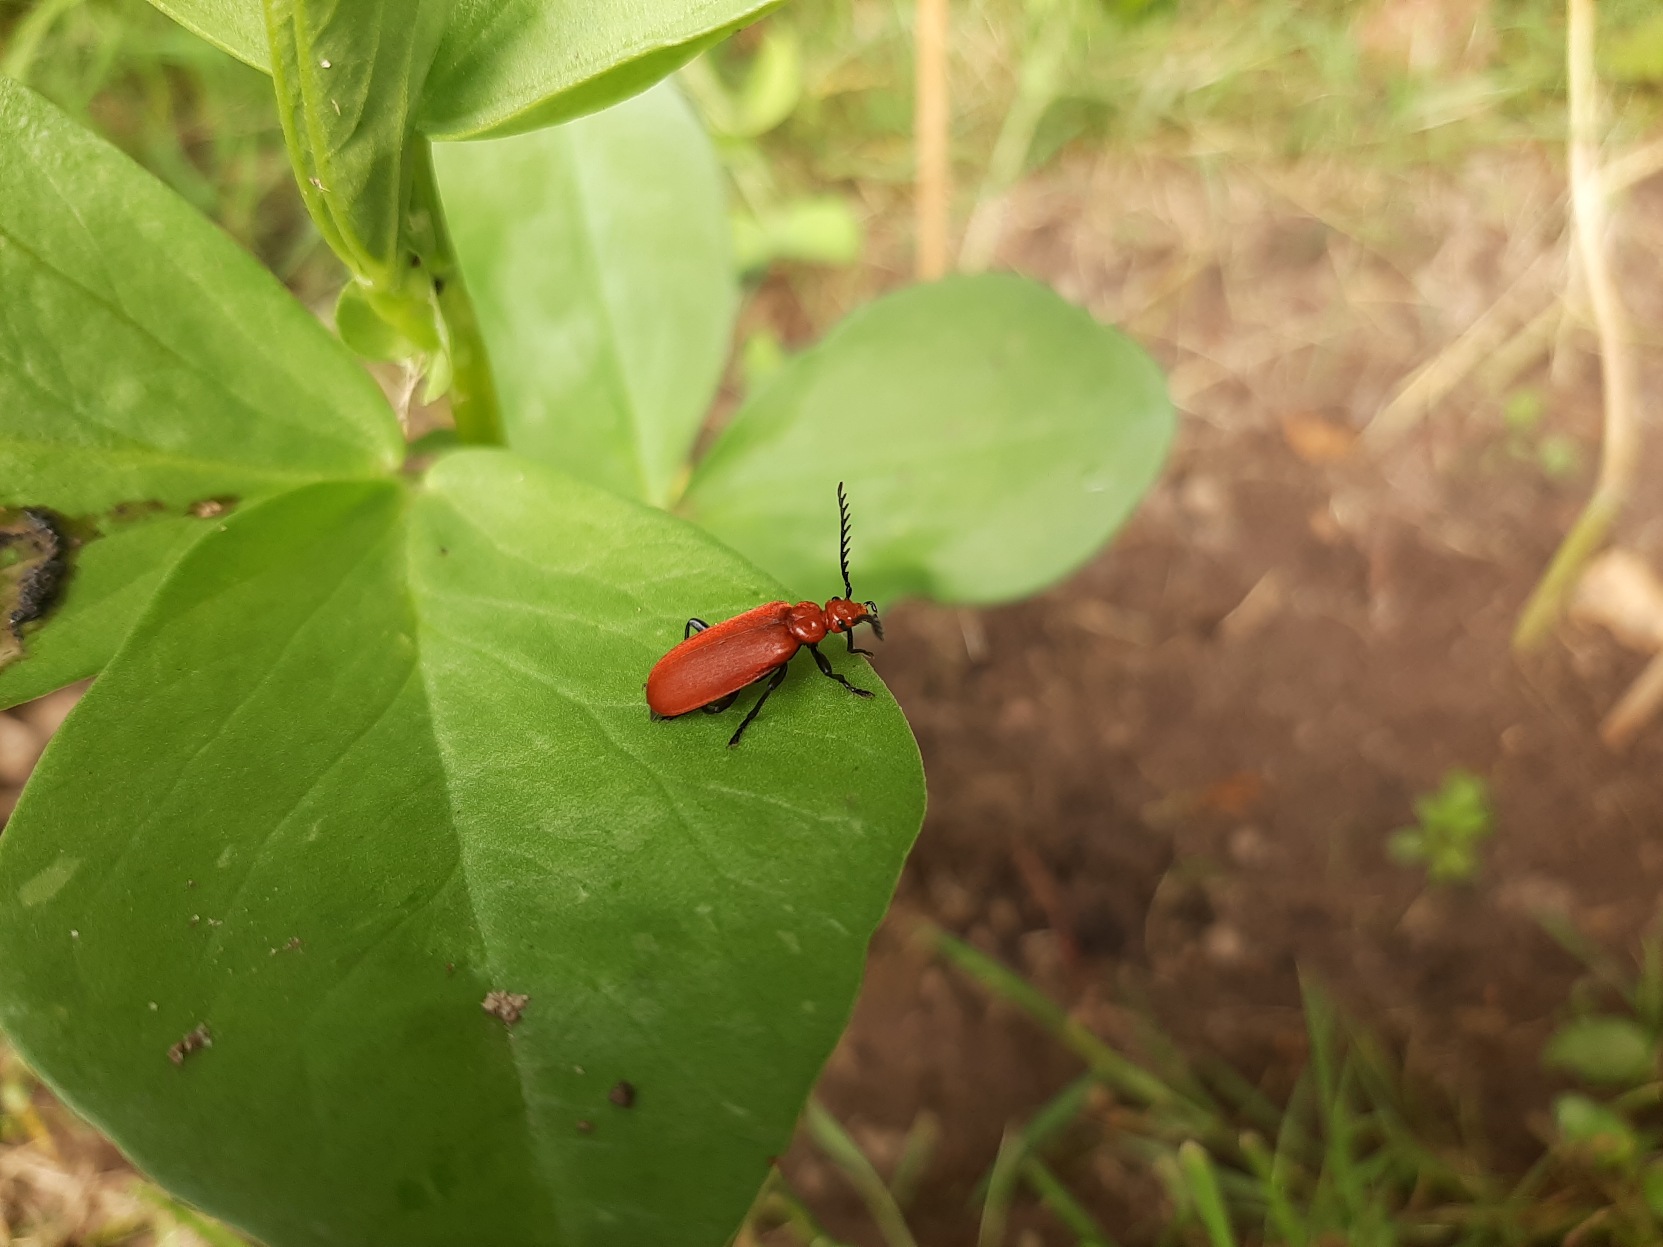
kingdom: Animalia
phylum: Arthropoda
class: Insecta
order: Coleoptera
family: Pyrochroidae
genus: Pyrochroa
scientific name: Pyrochroa serraticornis
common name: Rødhovedet kardinalbille
